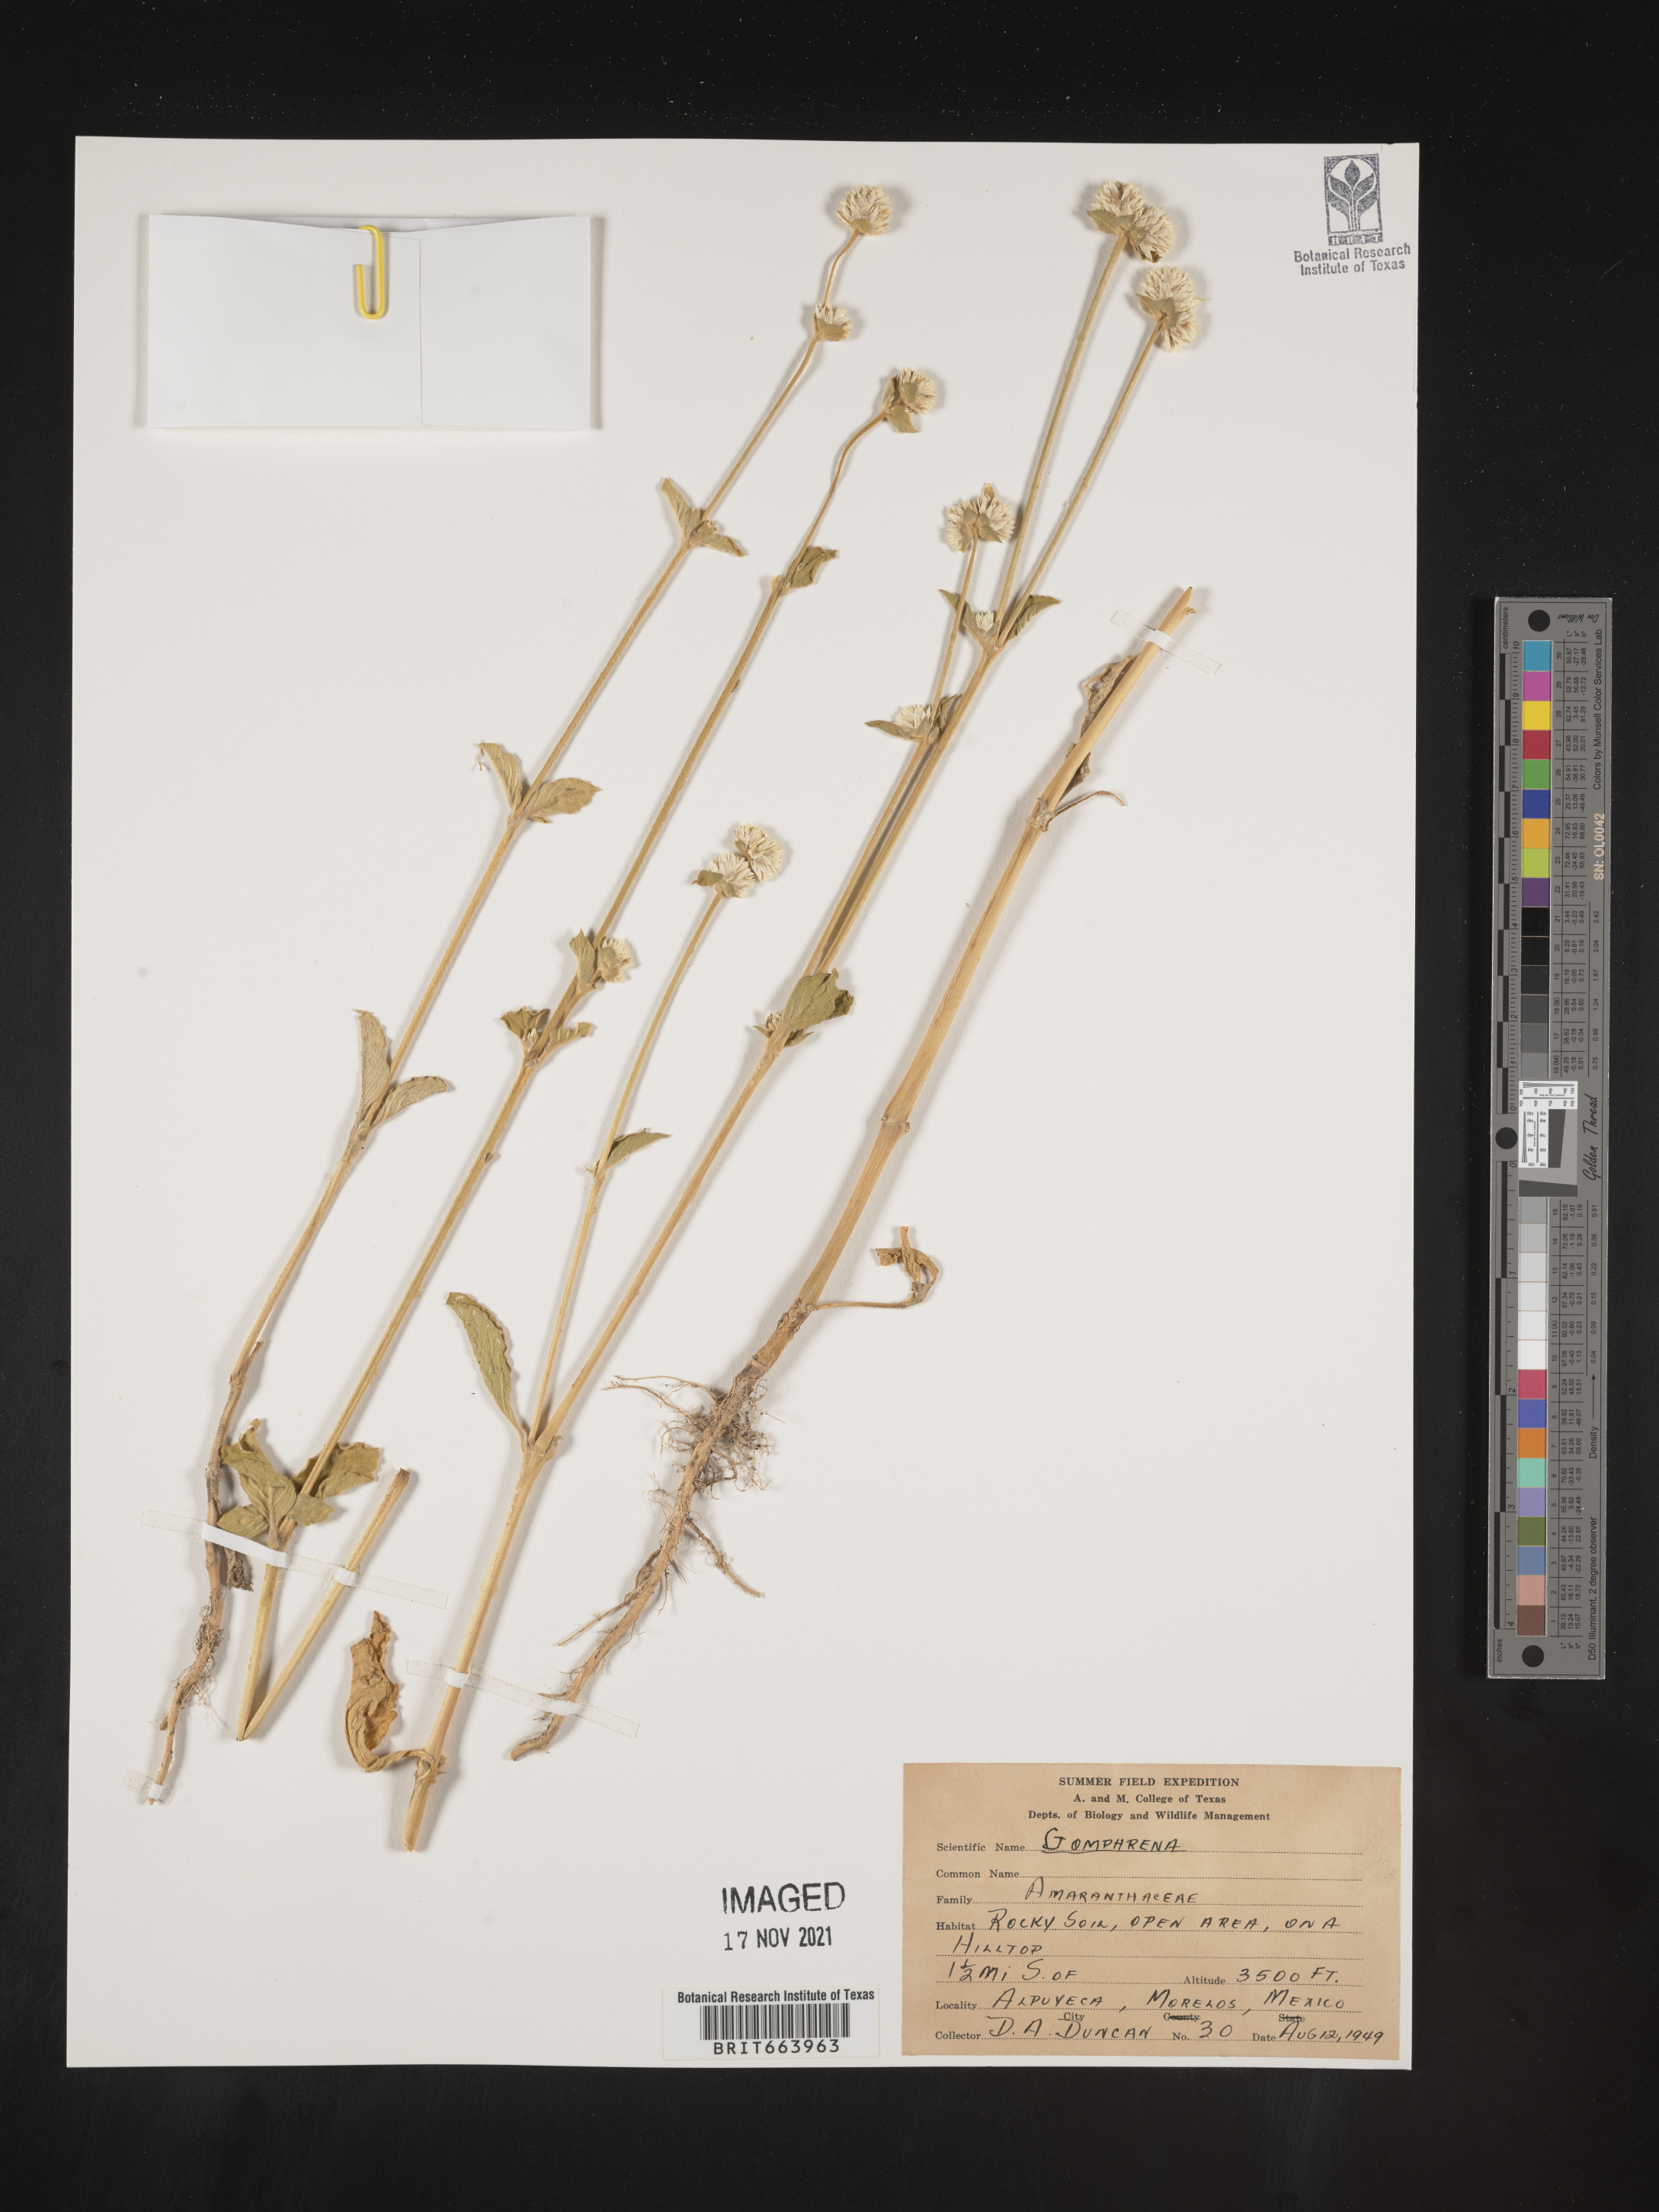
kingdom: Plantae
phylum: Tracheophyta
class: Magnoliopsida
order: Caryophyllales
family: Amaranthaceae
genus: Gomphrena
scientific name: Gomphrena
